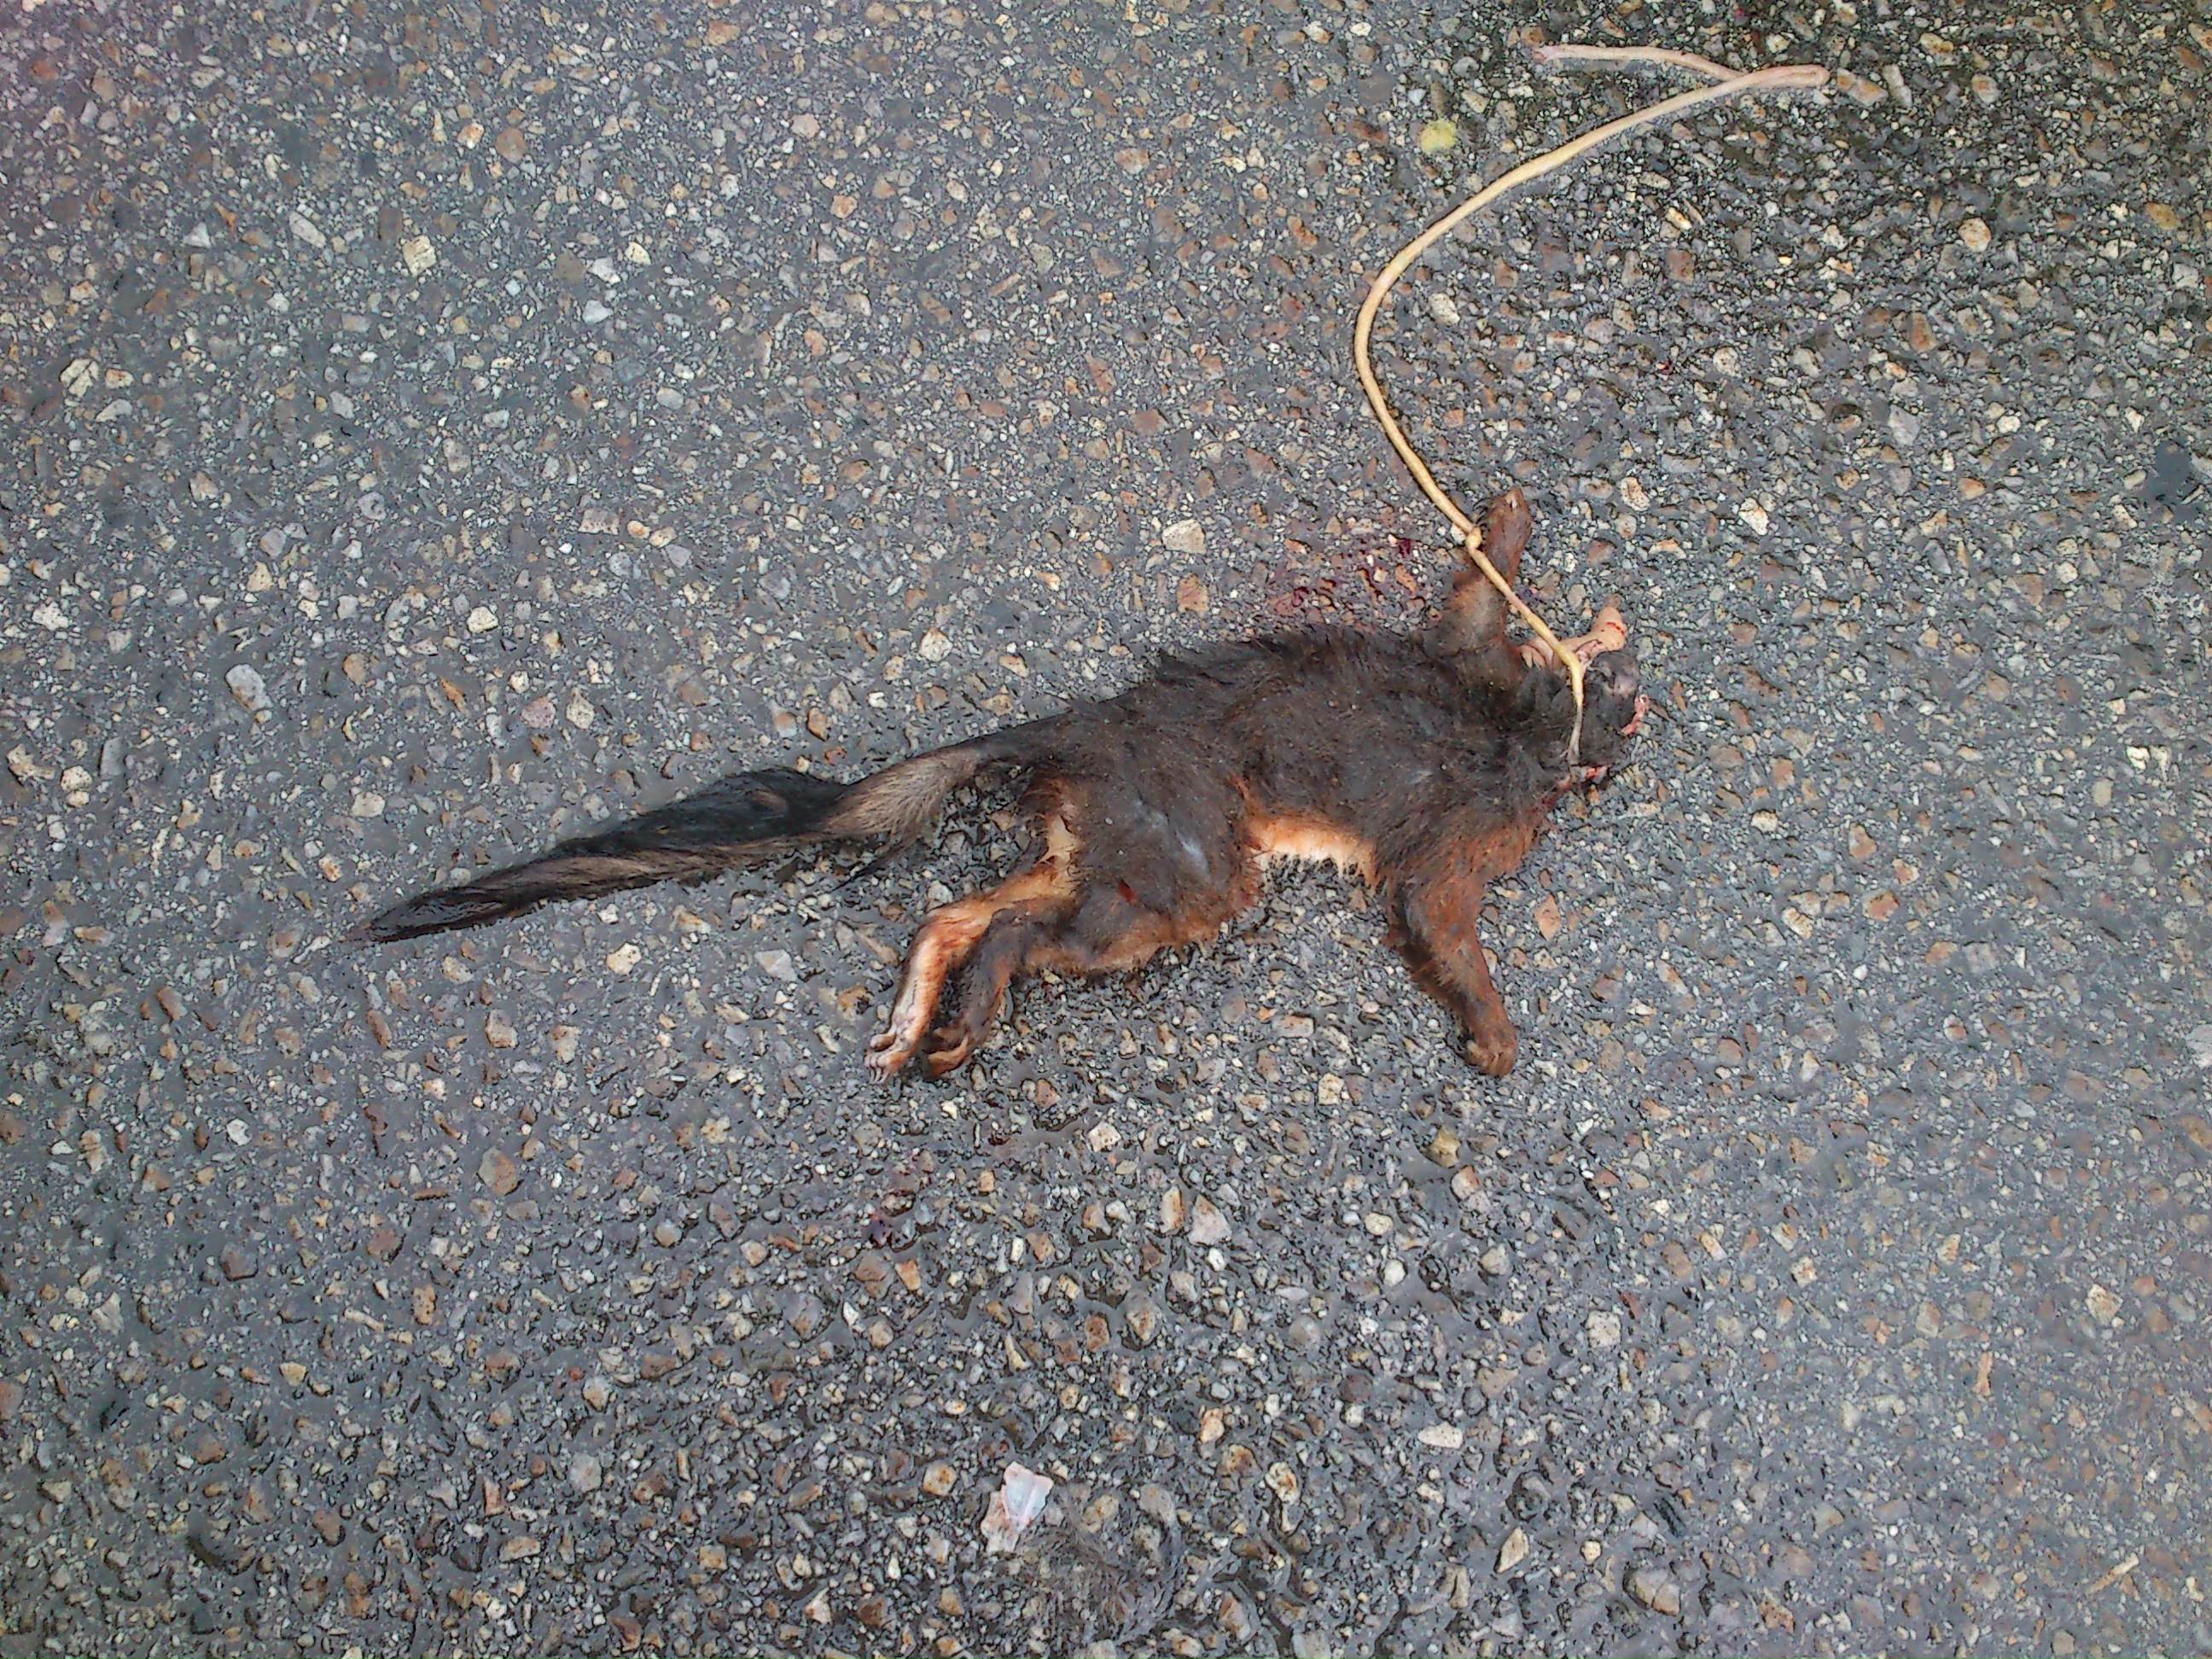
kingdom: Animalia
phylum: Chordata
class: Mammalia
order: Rodentia
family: Sciuridae
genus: Sciurus
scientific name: Sciurus vulgaris
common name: Eurasian red squirrel
